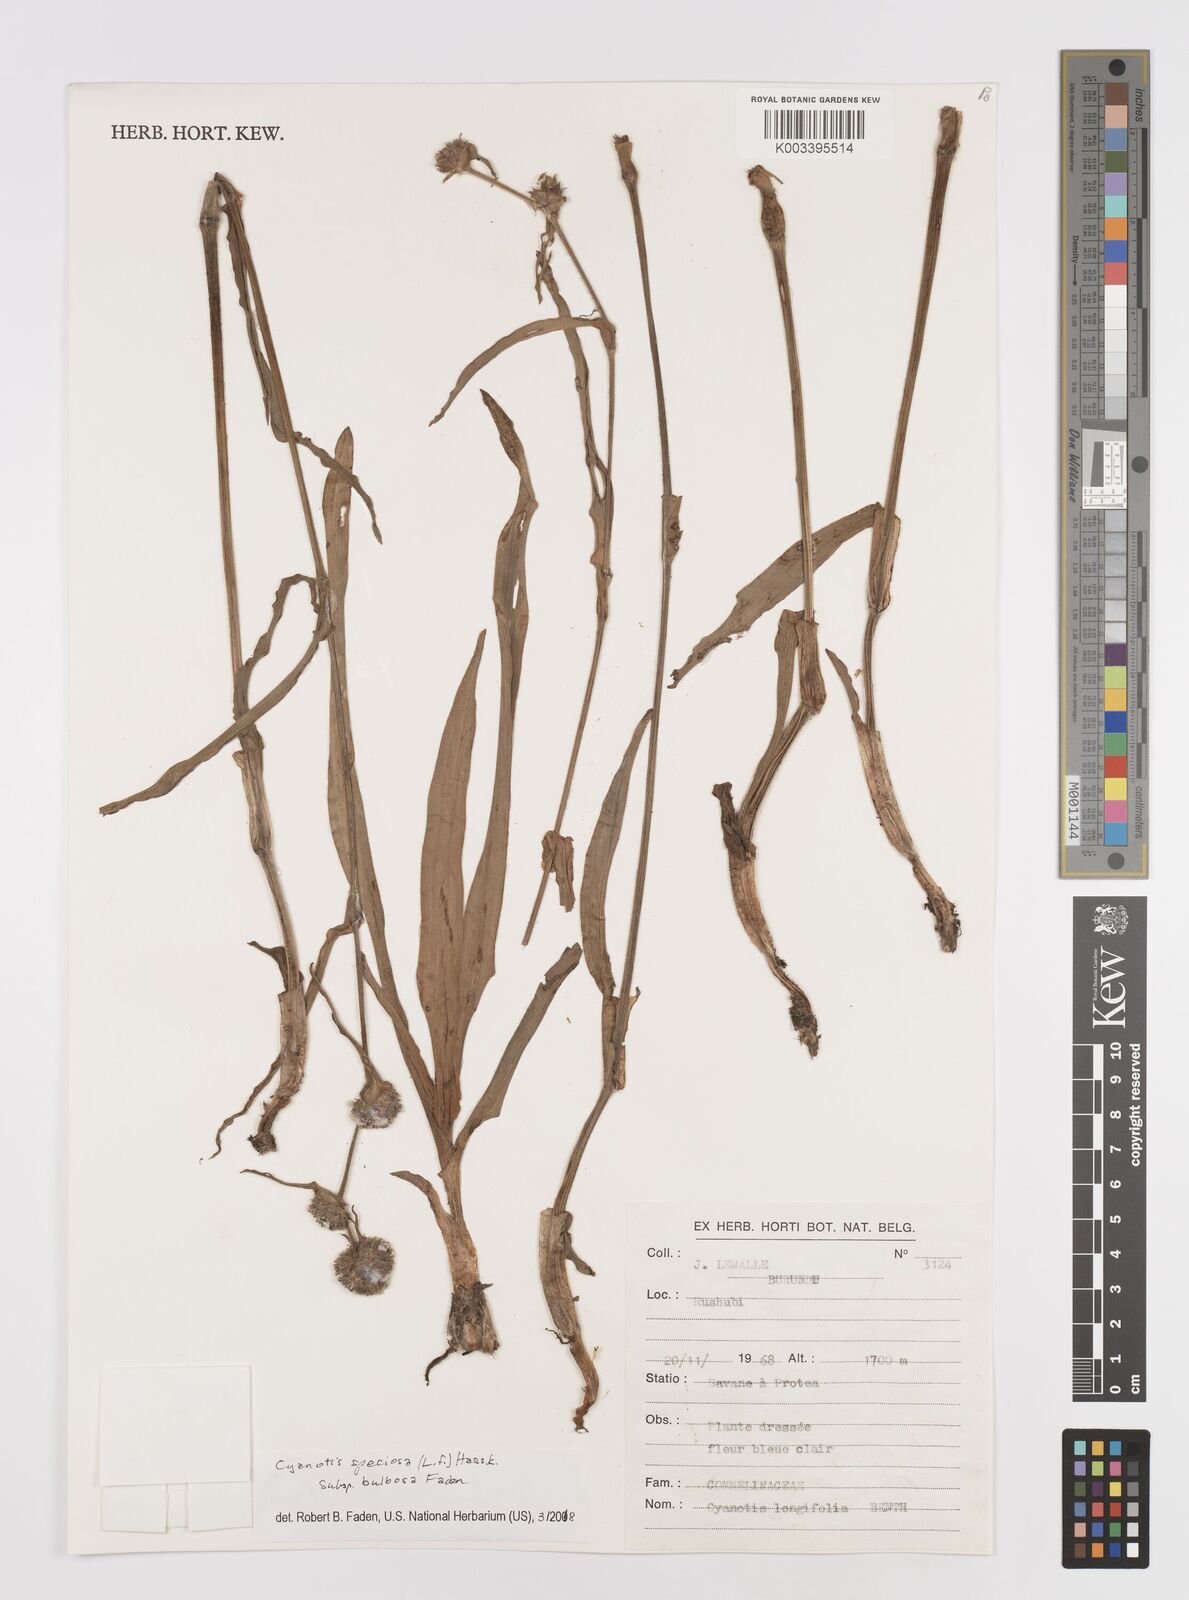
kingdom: Plantae
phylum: Tracheophyta
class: Liliopsida
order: Commelinales
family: Commelinaceae
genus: Cyanotis
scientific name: Cyanotis speciosa
